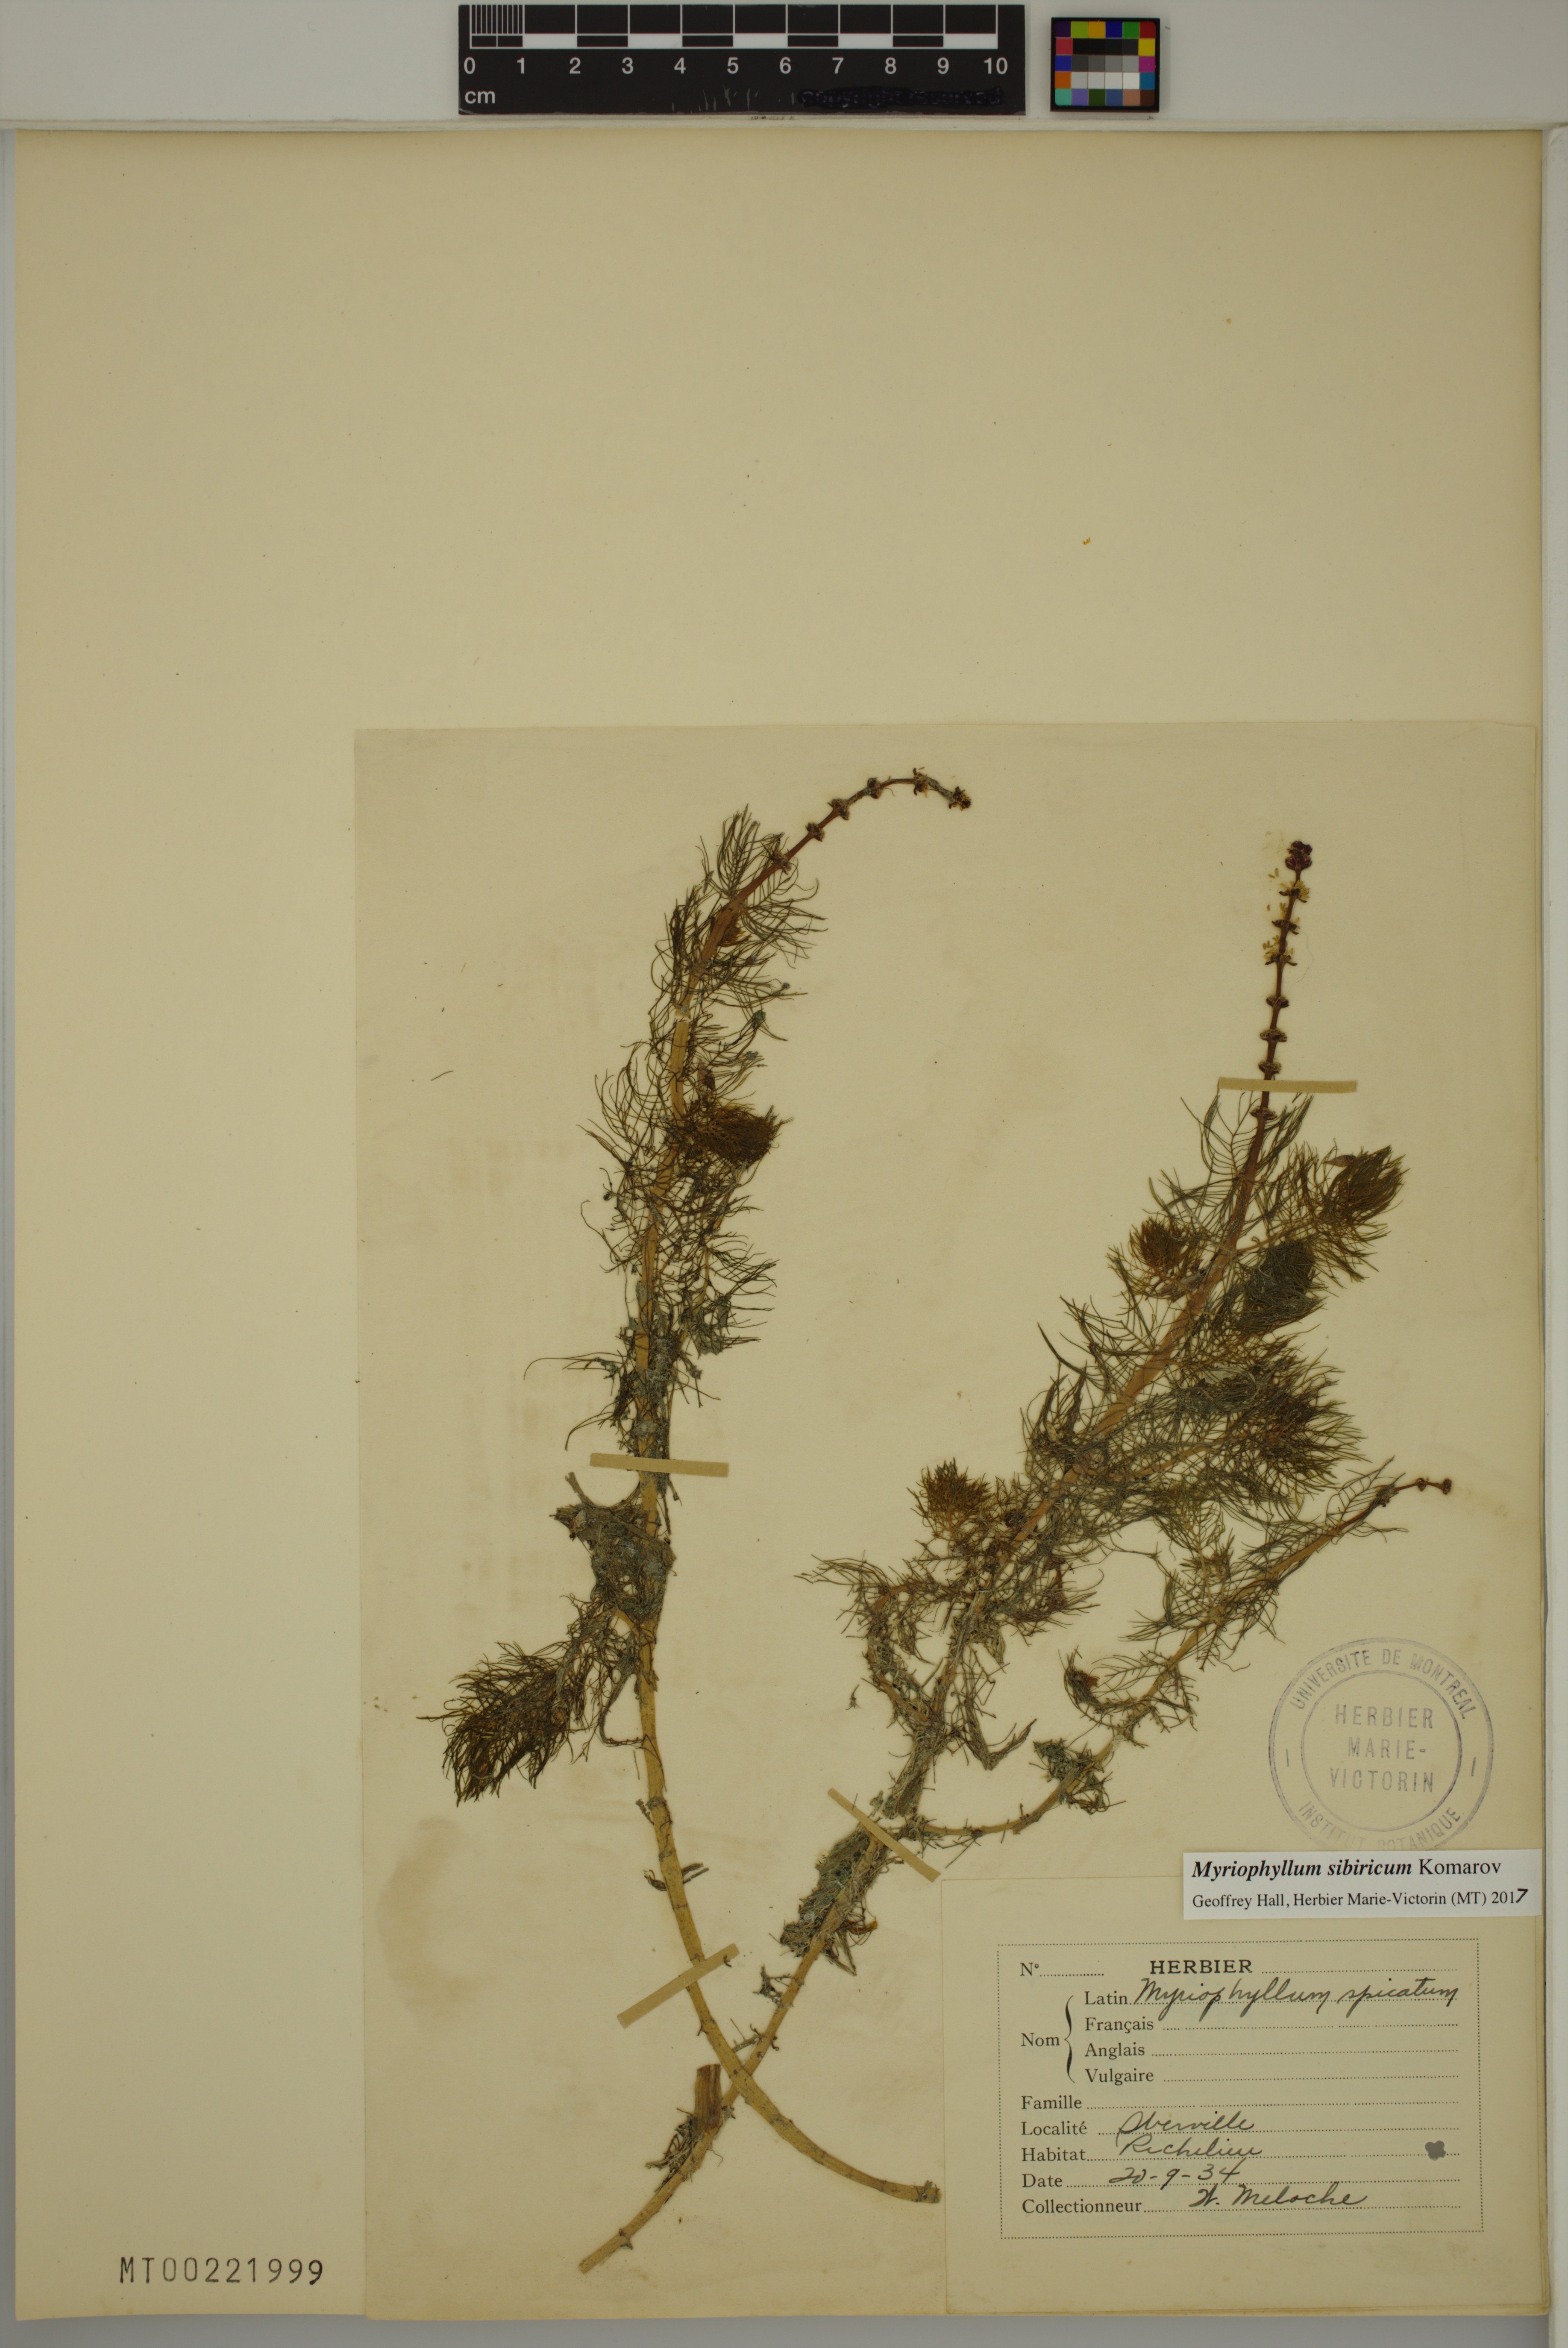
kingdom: Plantae
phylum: Tracheophyta
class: Magnoliopsida
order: Saxifragales
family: Haloragaceae
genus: Myriophyllum
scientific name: Myriophyllum sibiricum
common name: Siberian water-milfoil
